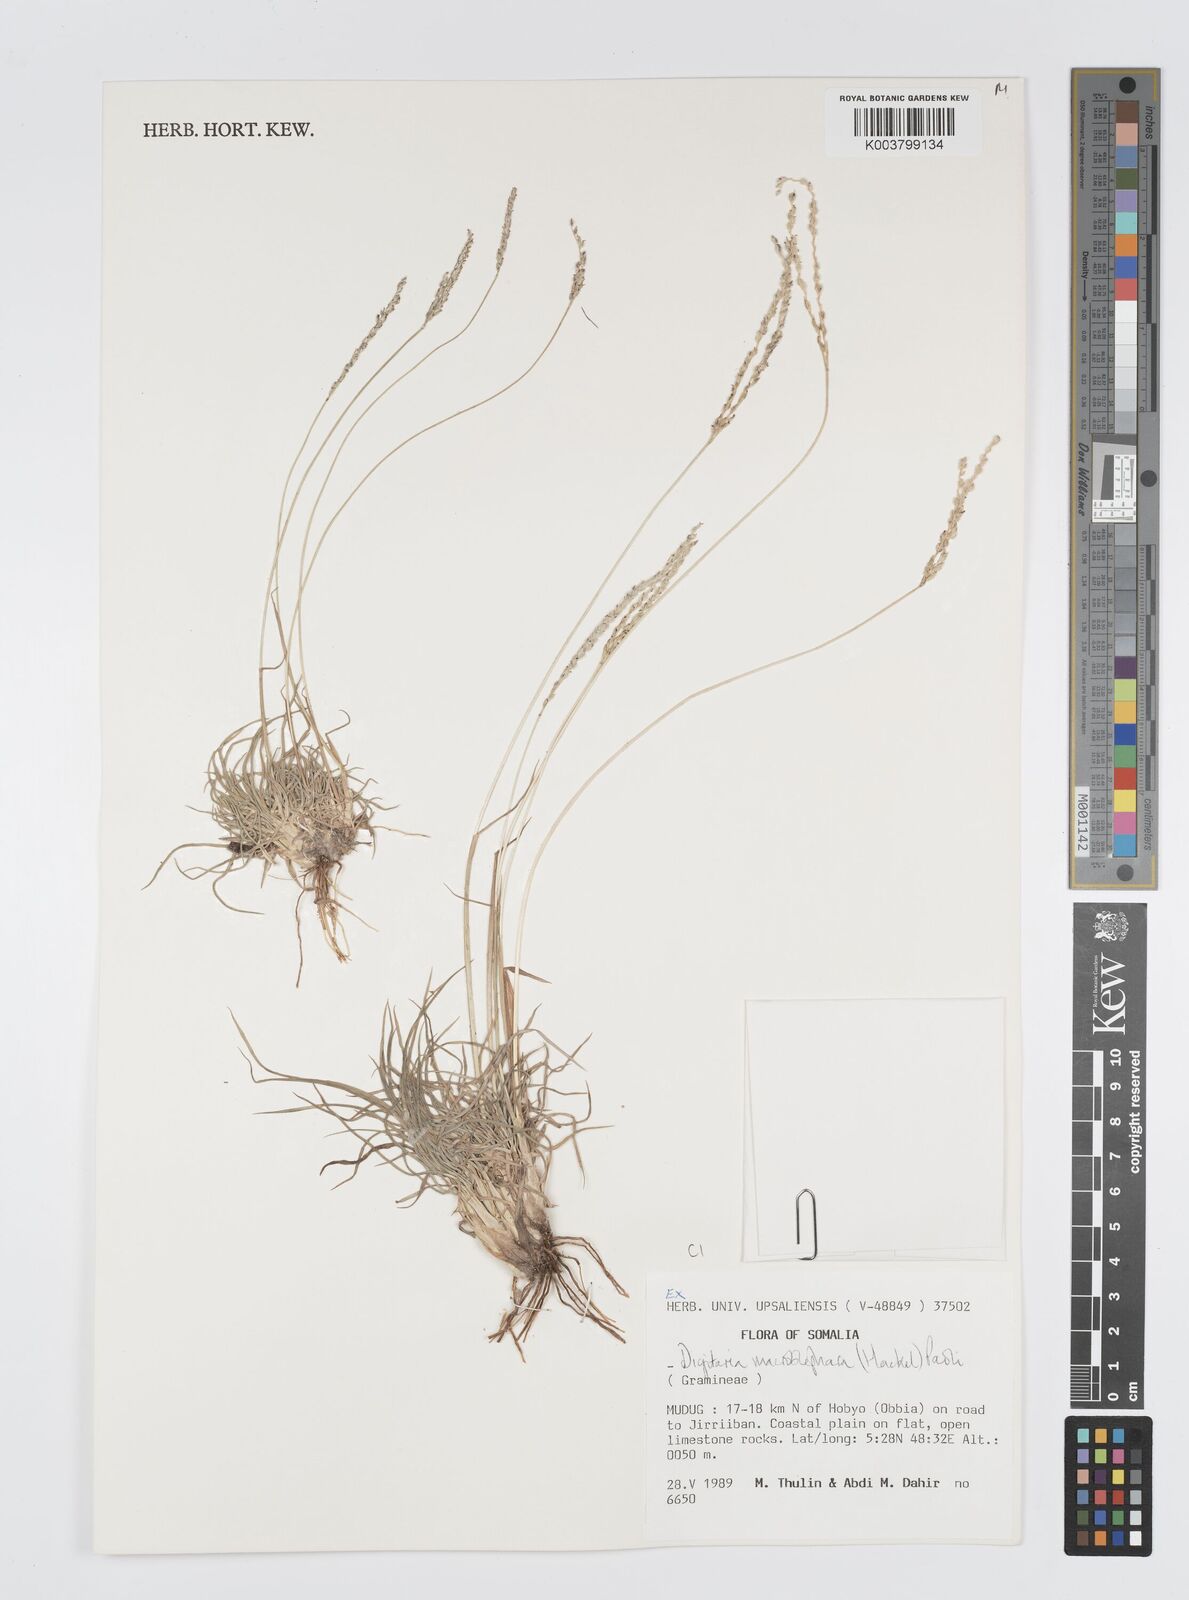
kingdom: Plantae
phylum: Tracheophyta
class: Liliopsida
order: Poales
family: Poaceae
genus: Digitaria
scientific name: Digitaria macroblephara
